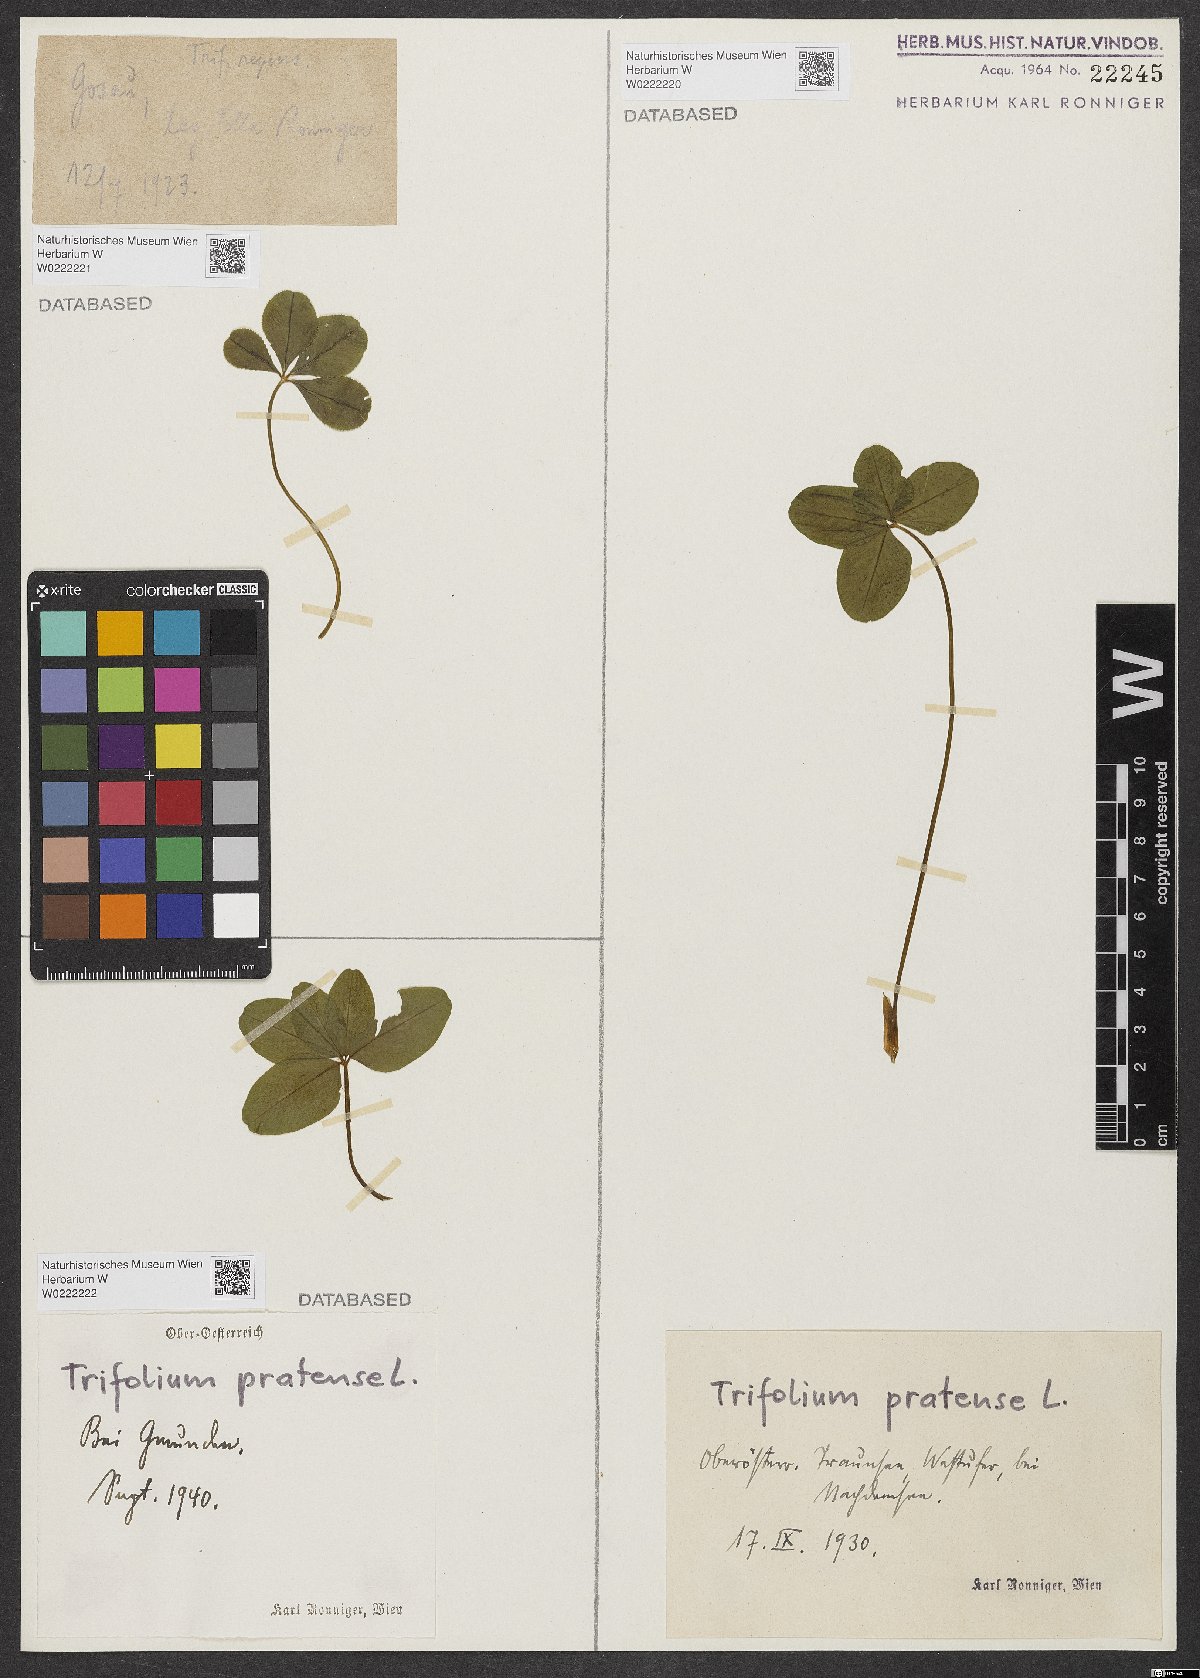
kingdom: Plantae
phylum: Tracheophyta
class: Magnoliopsida
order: Fabales
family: Fabaceae
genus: Trifolium
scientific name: Trifolium pratense
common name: Red clover
